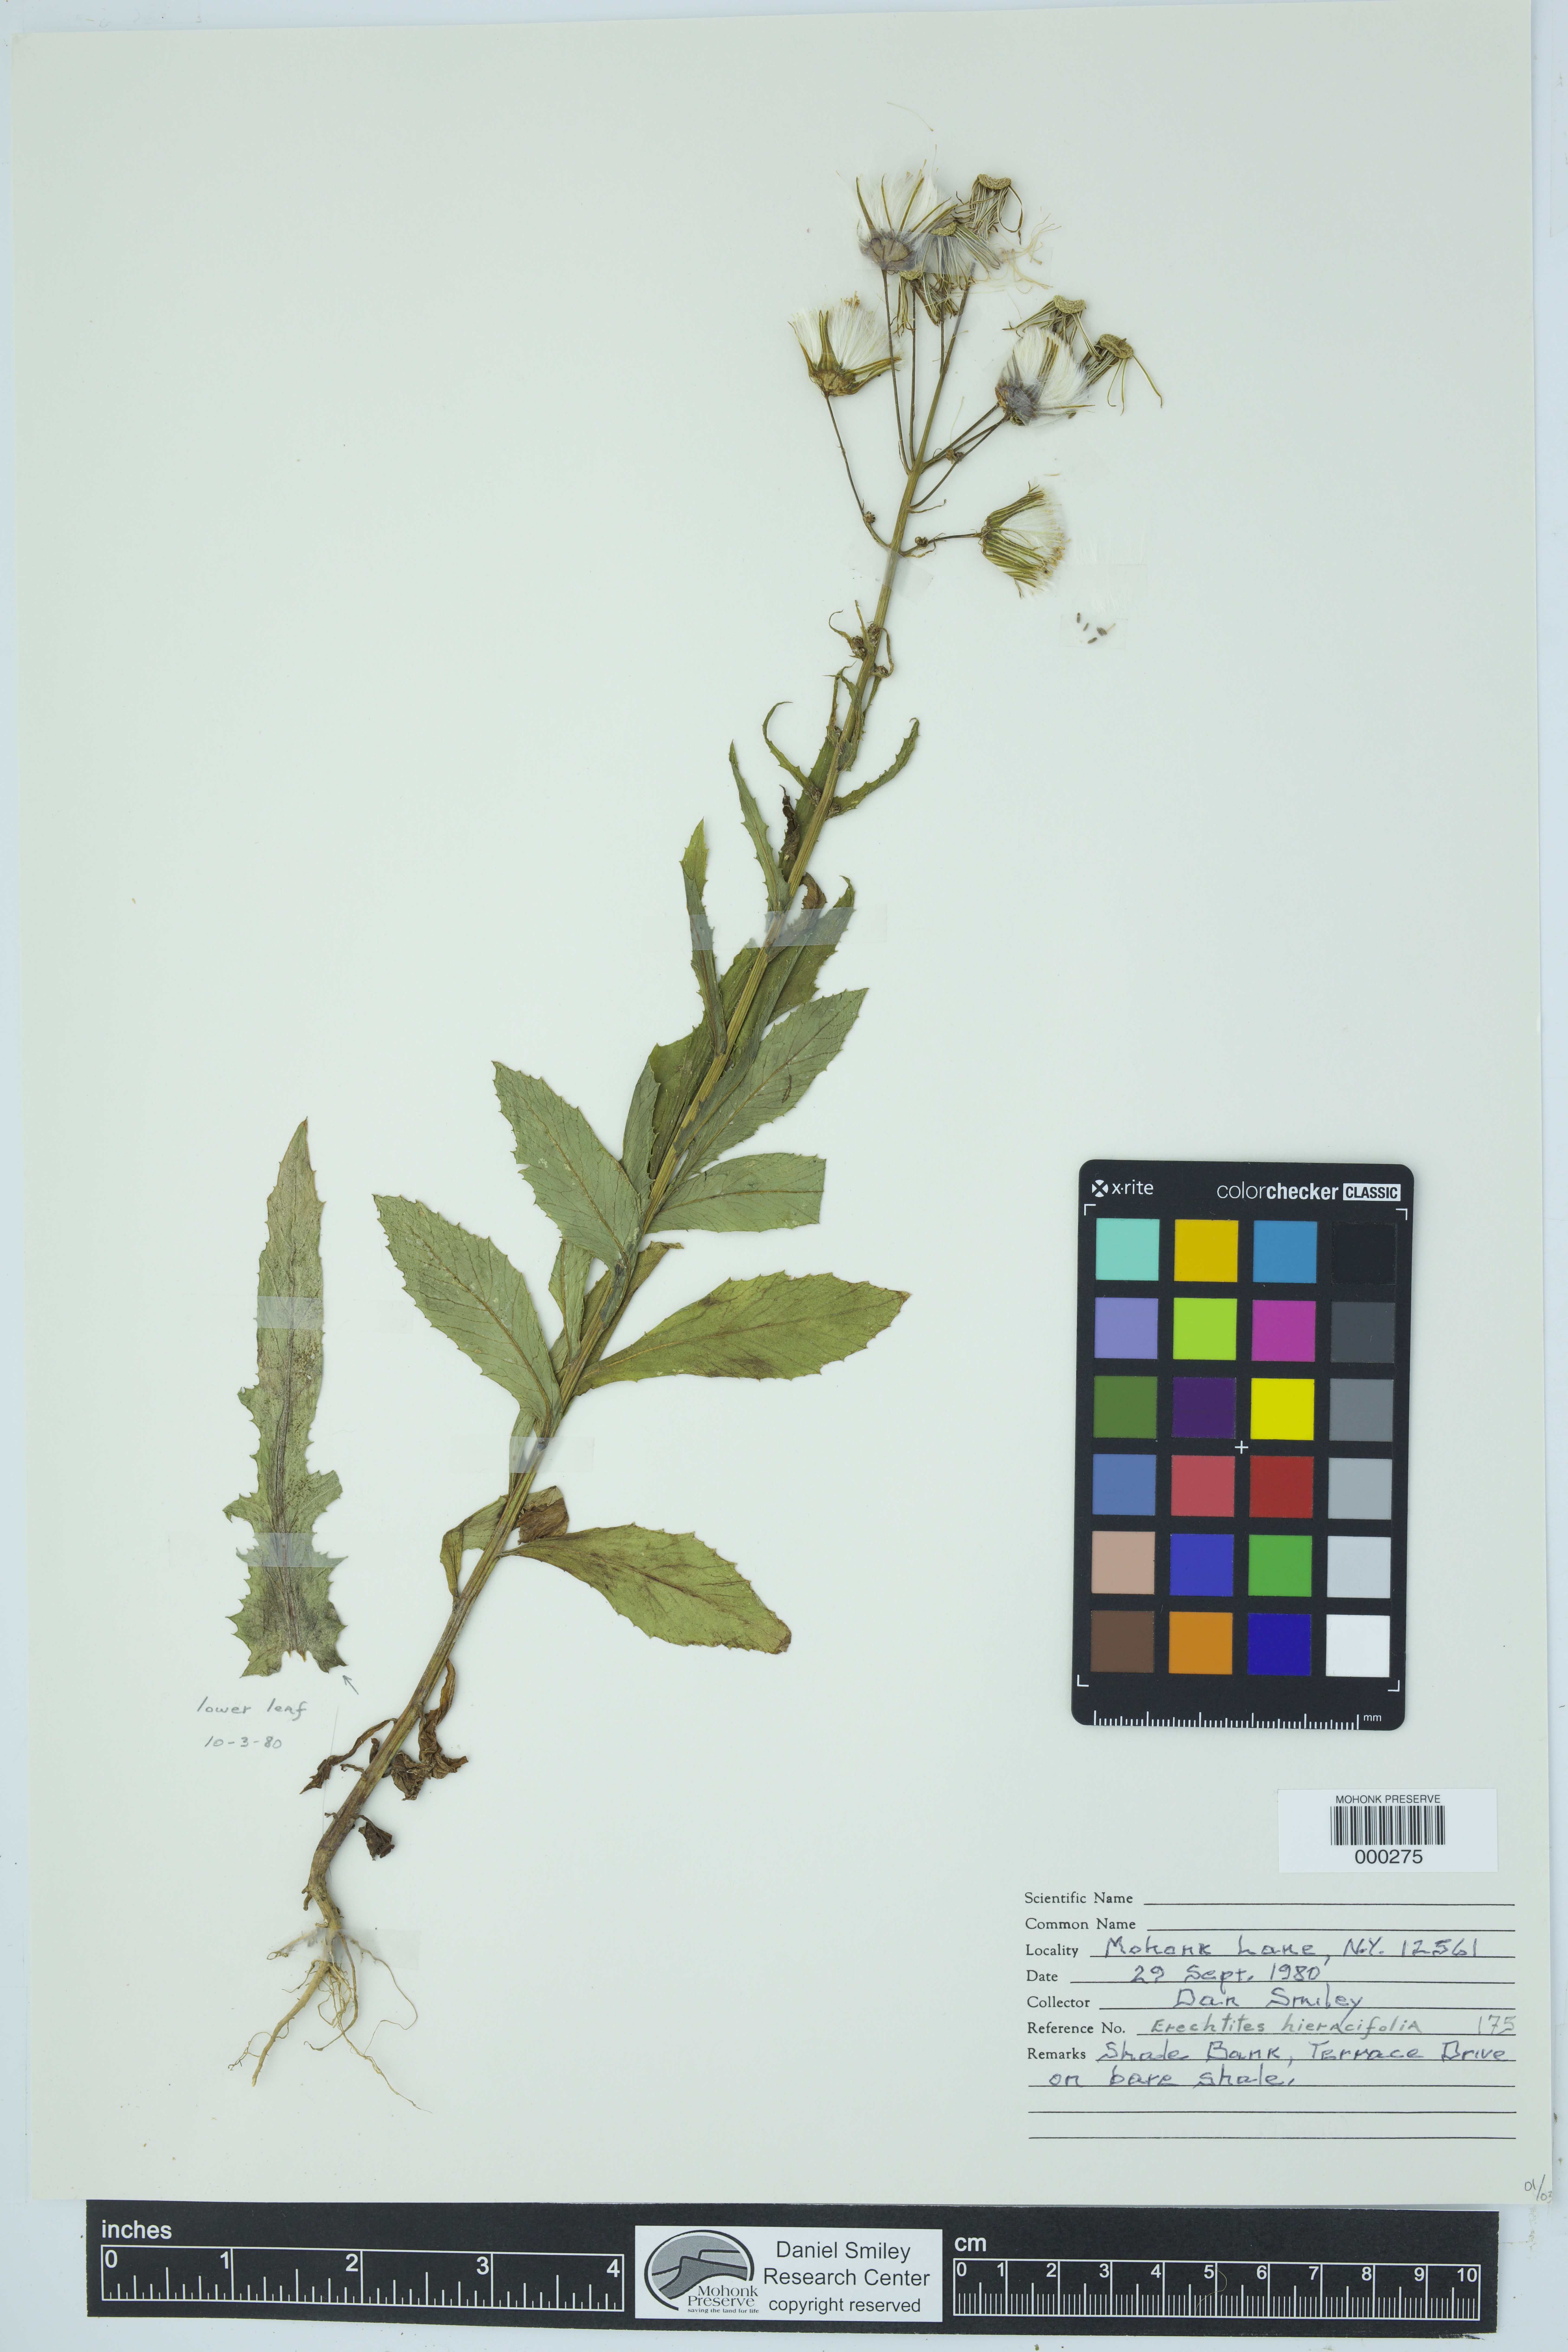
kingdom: Plantae
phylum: Tracheophyta
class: Magnoliopsida
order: Asterales
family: Asteraceae
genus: Erechtites
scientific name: Erechtites hieraciifolius
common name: American burnweed
